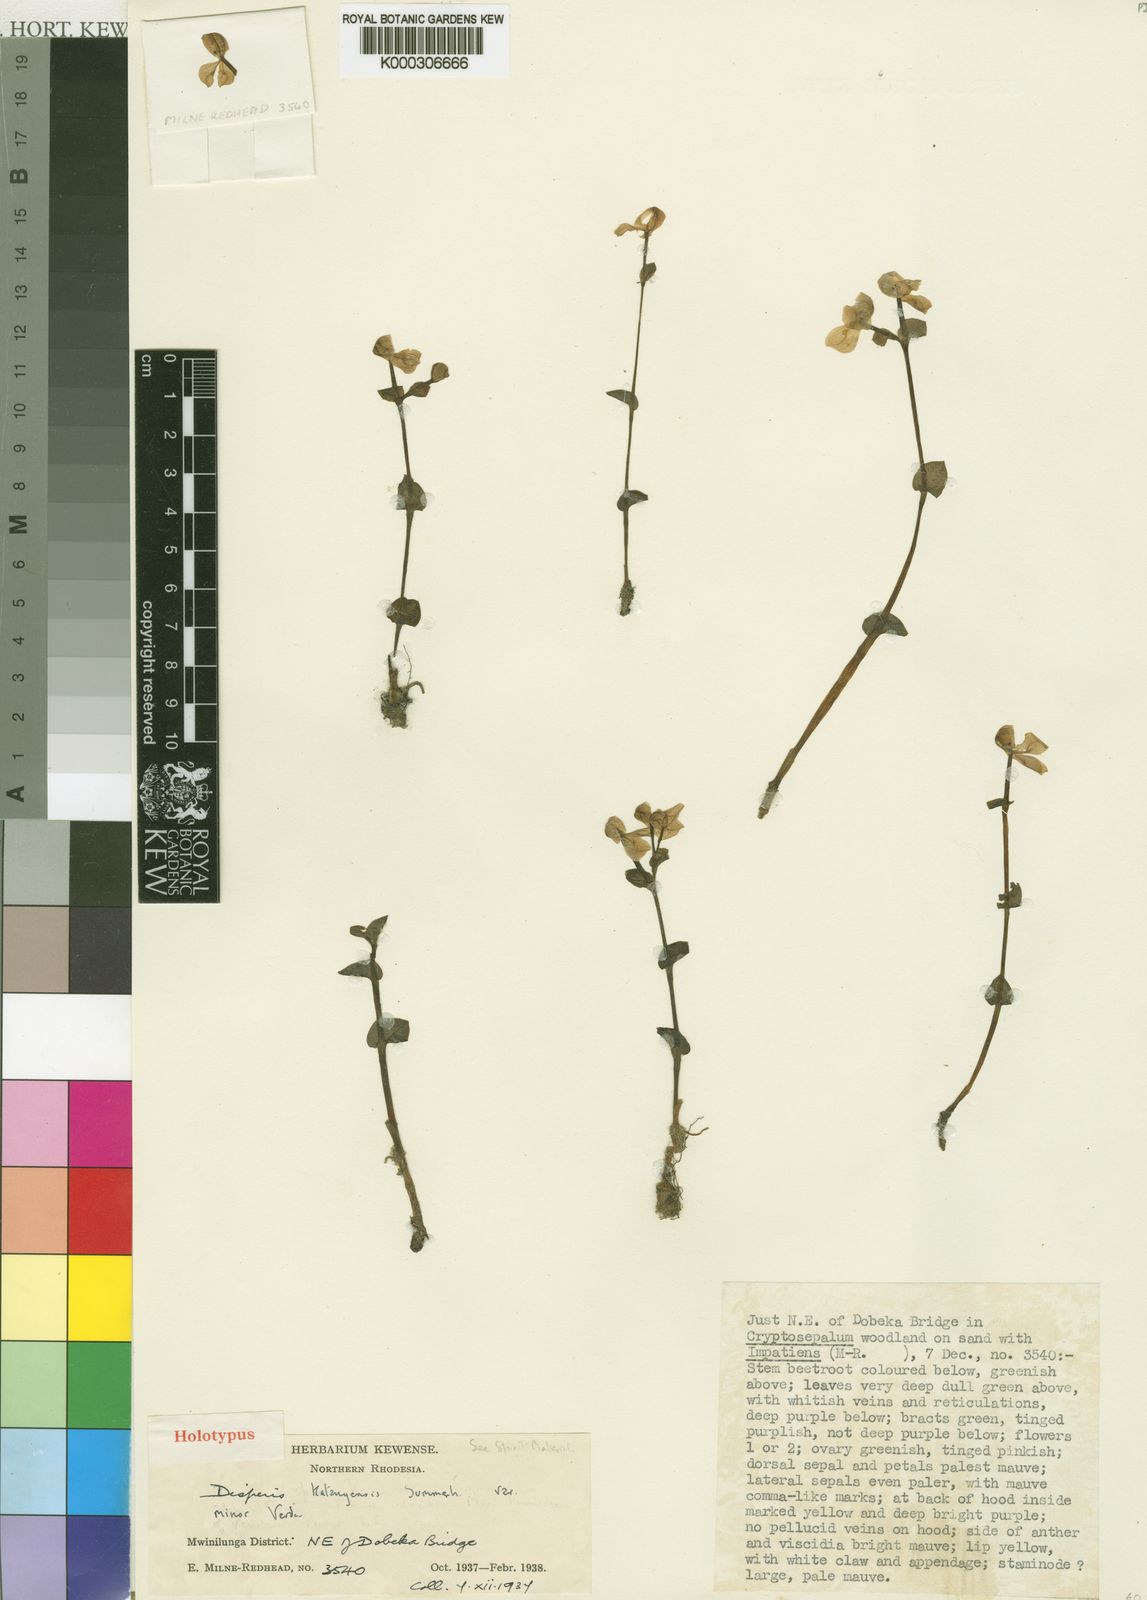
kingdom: Plantae
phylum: Tracheophyta
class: Liliopsida
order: Asparagales
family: Orchidaceae
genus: Disperis
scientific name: Disperis katangensis
